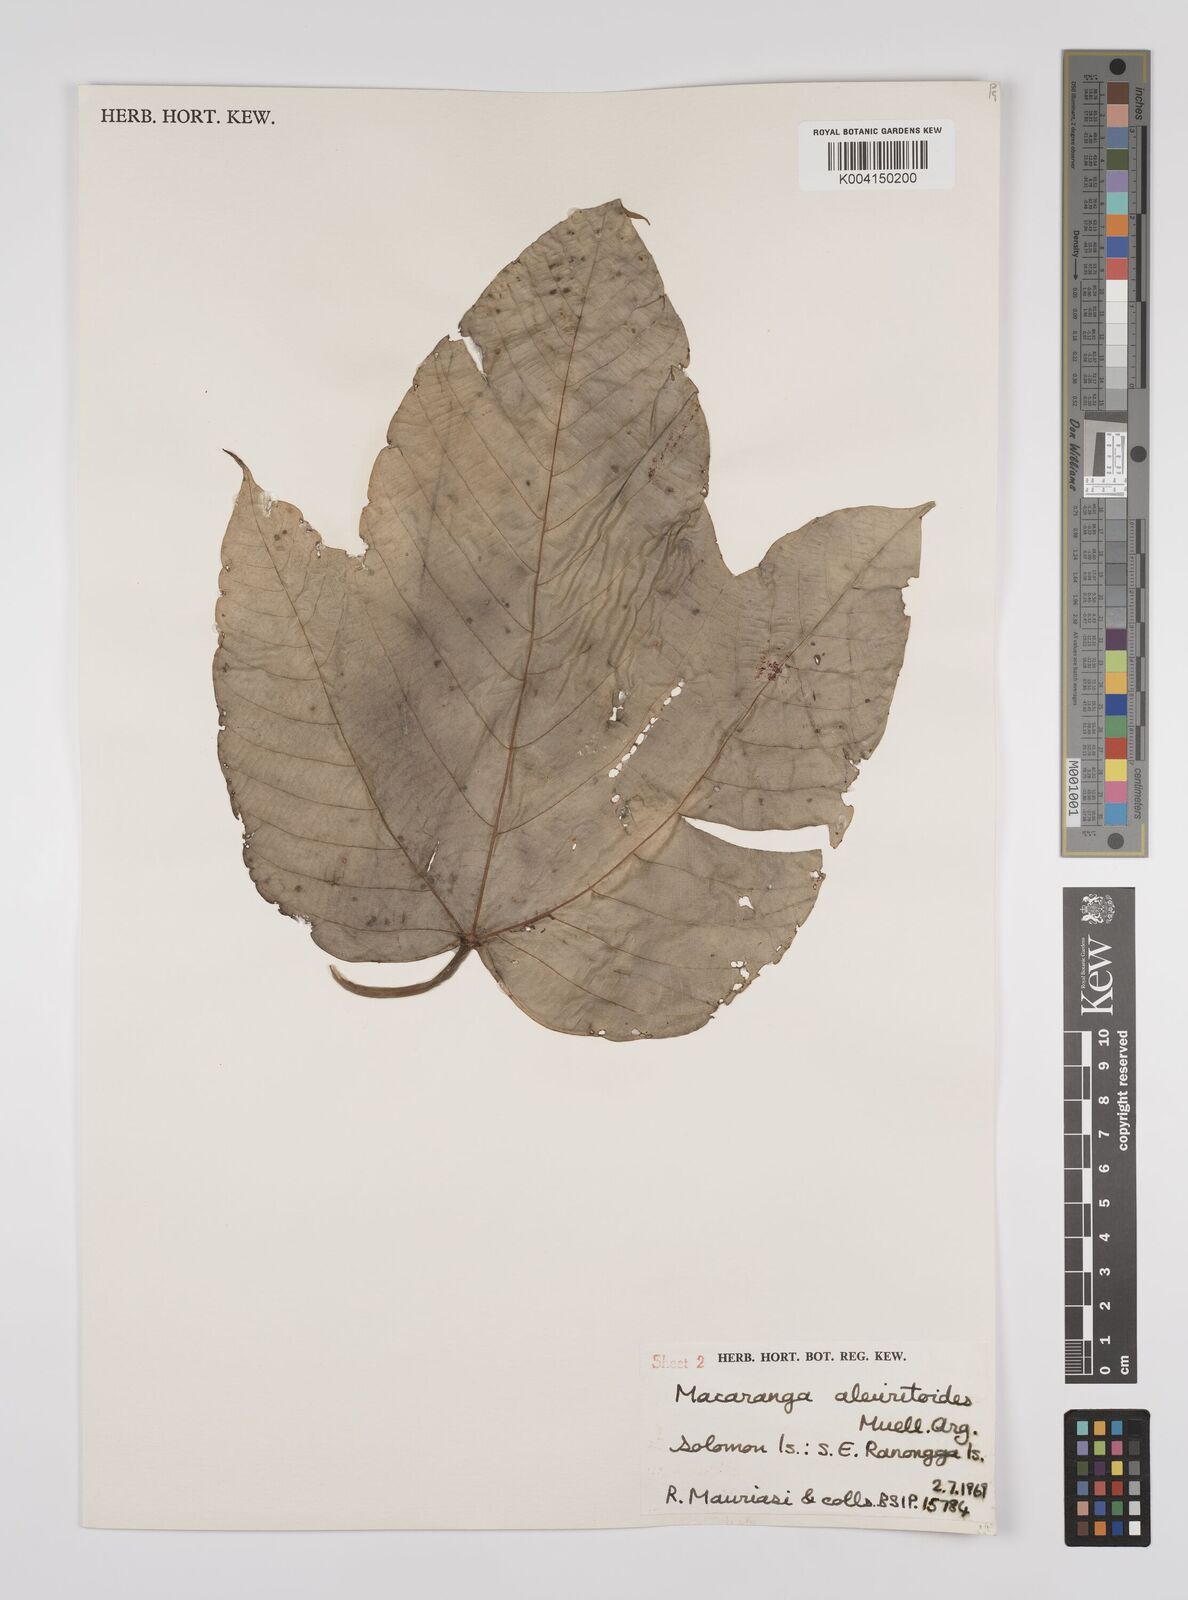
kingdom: Plantae
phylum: Tracheophyta
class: Magnoliopsida
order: Malpighiales
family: Euphorbiaceae
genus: Macaranga
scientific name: Macaranga aleuritoides
